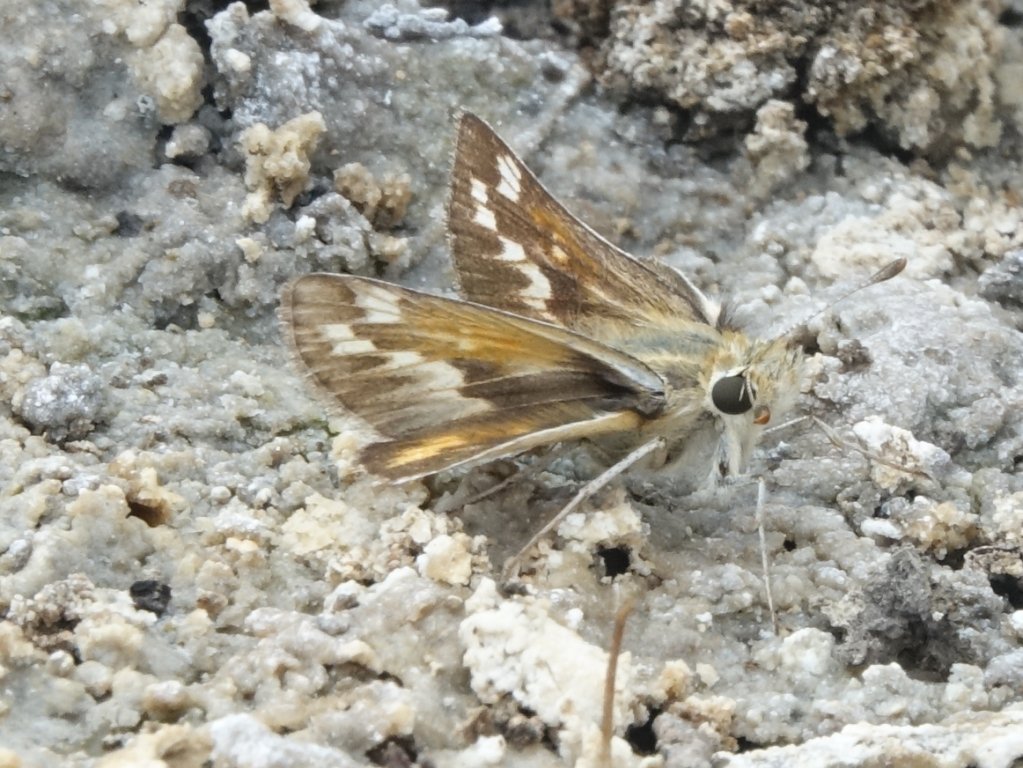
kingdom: Animalia
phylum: Arthropoda
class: Insecta
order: Lepidoptera
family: Hesperiidae
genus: Polites
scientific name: Polites sabuleti
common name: Sandhill Skipper
